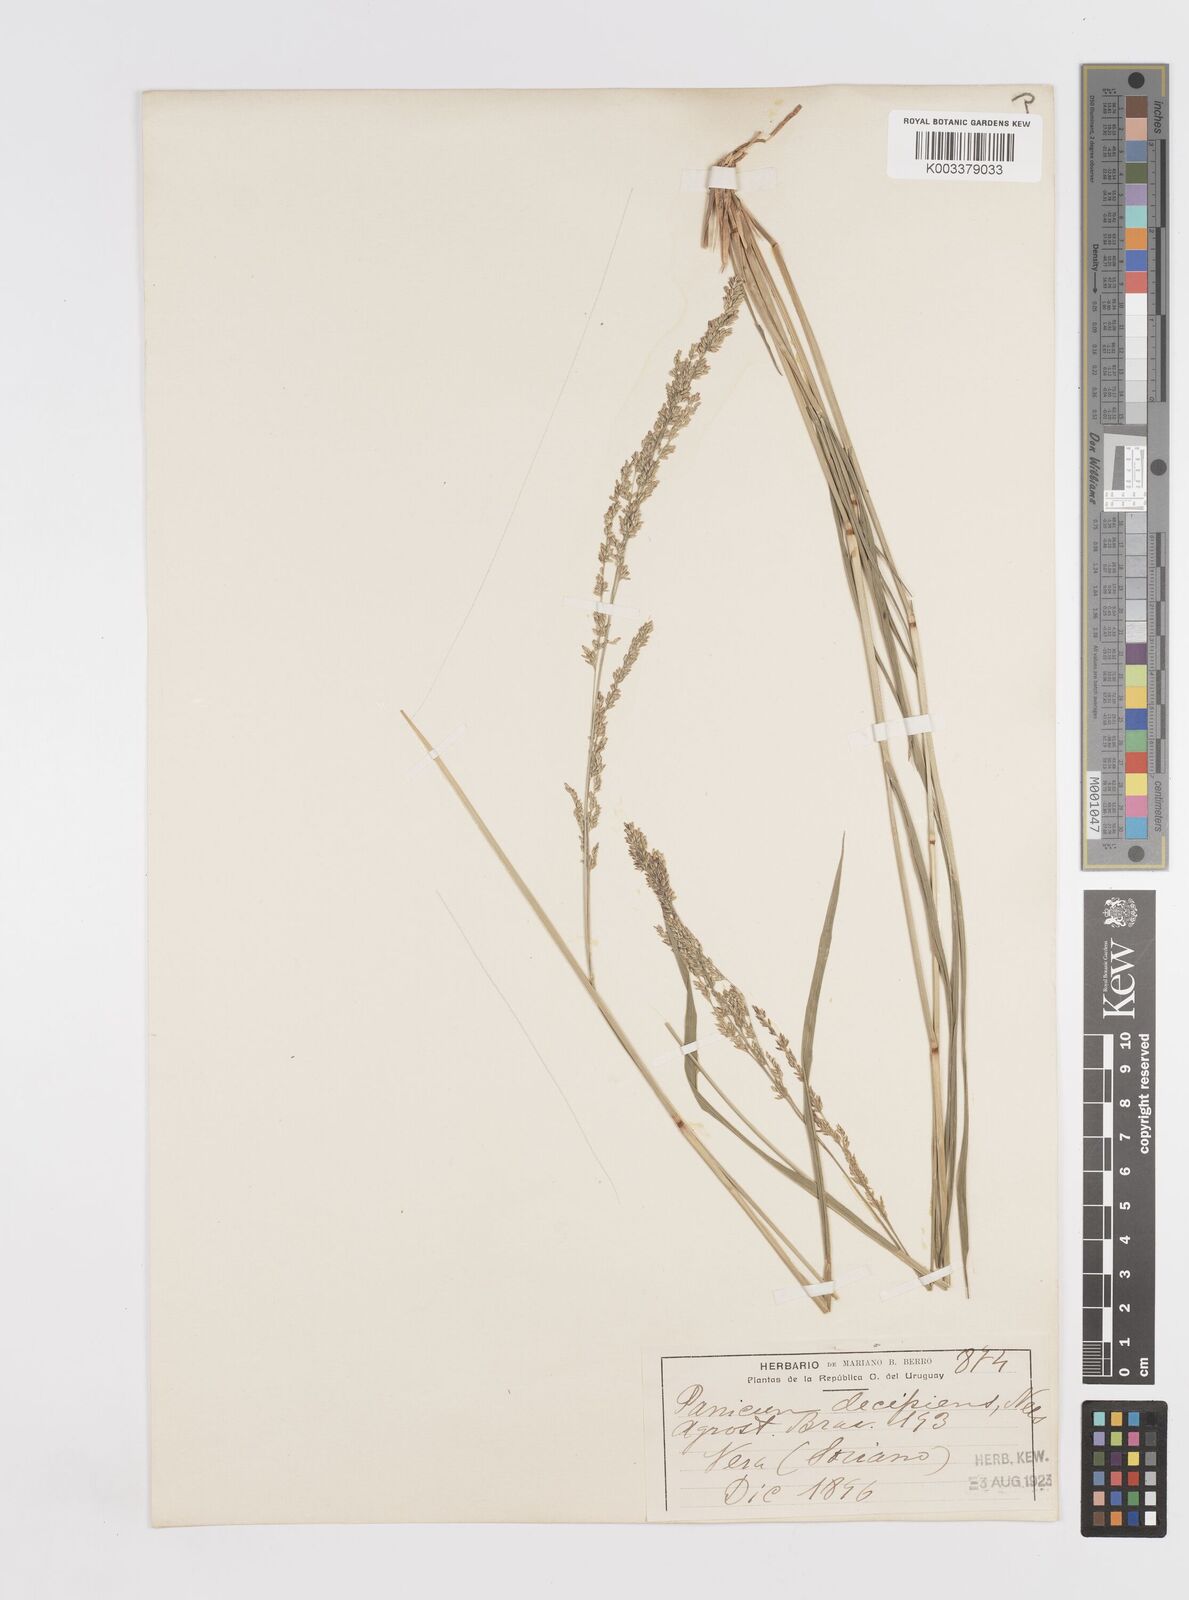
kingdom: Plantae
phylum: Tracheophyta
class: Liliopsida
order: Poales
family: Poaceae
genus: Steinchisma
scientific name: Steinchisma decipiens
